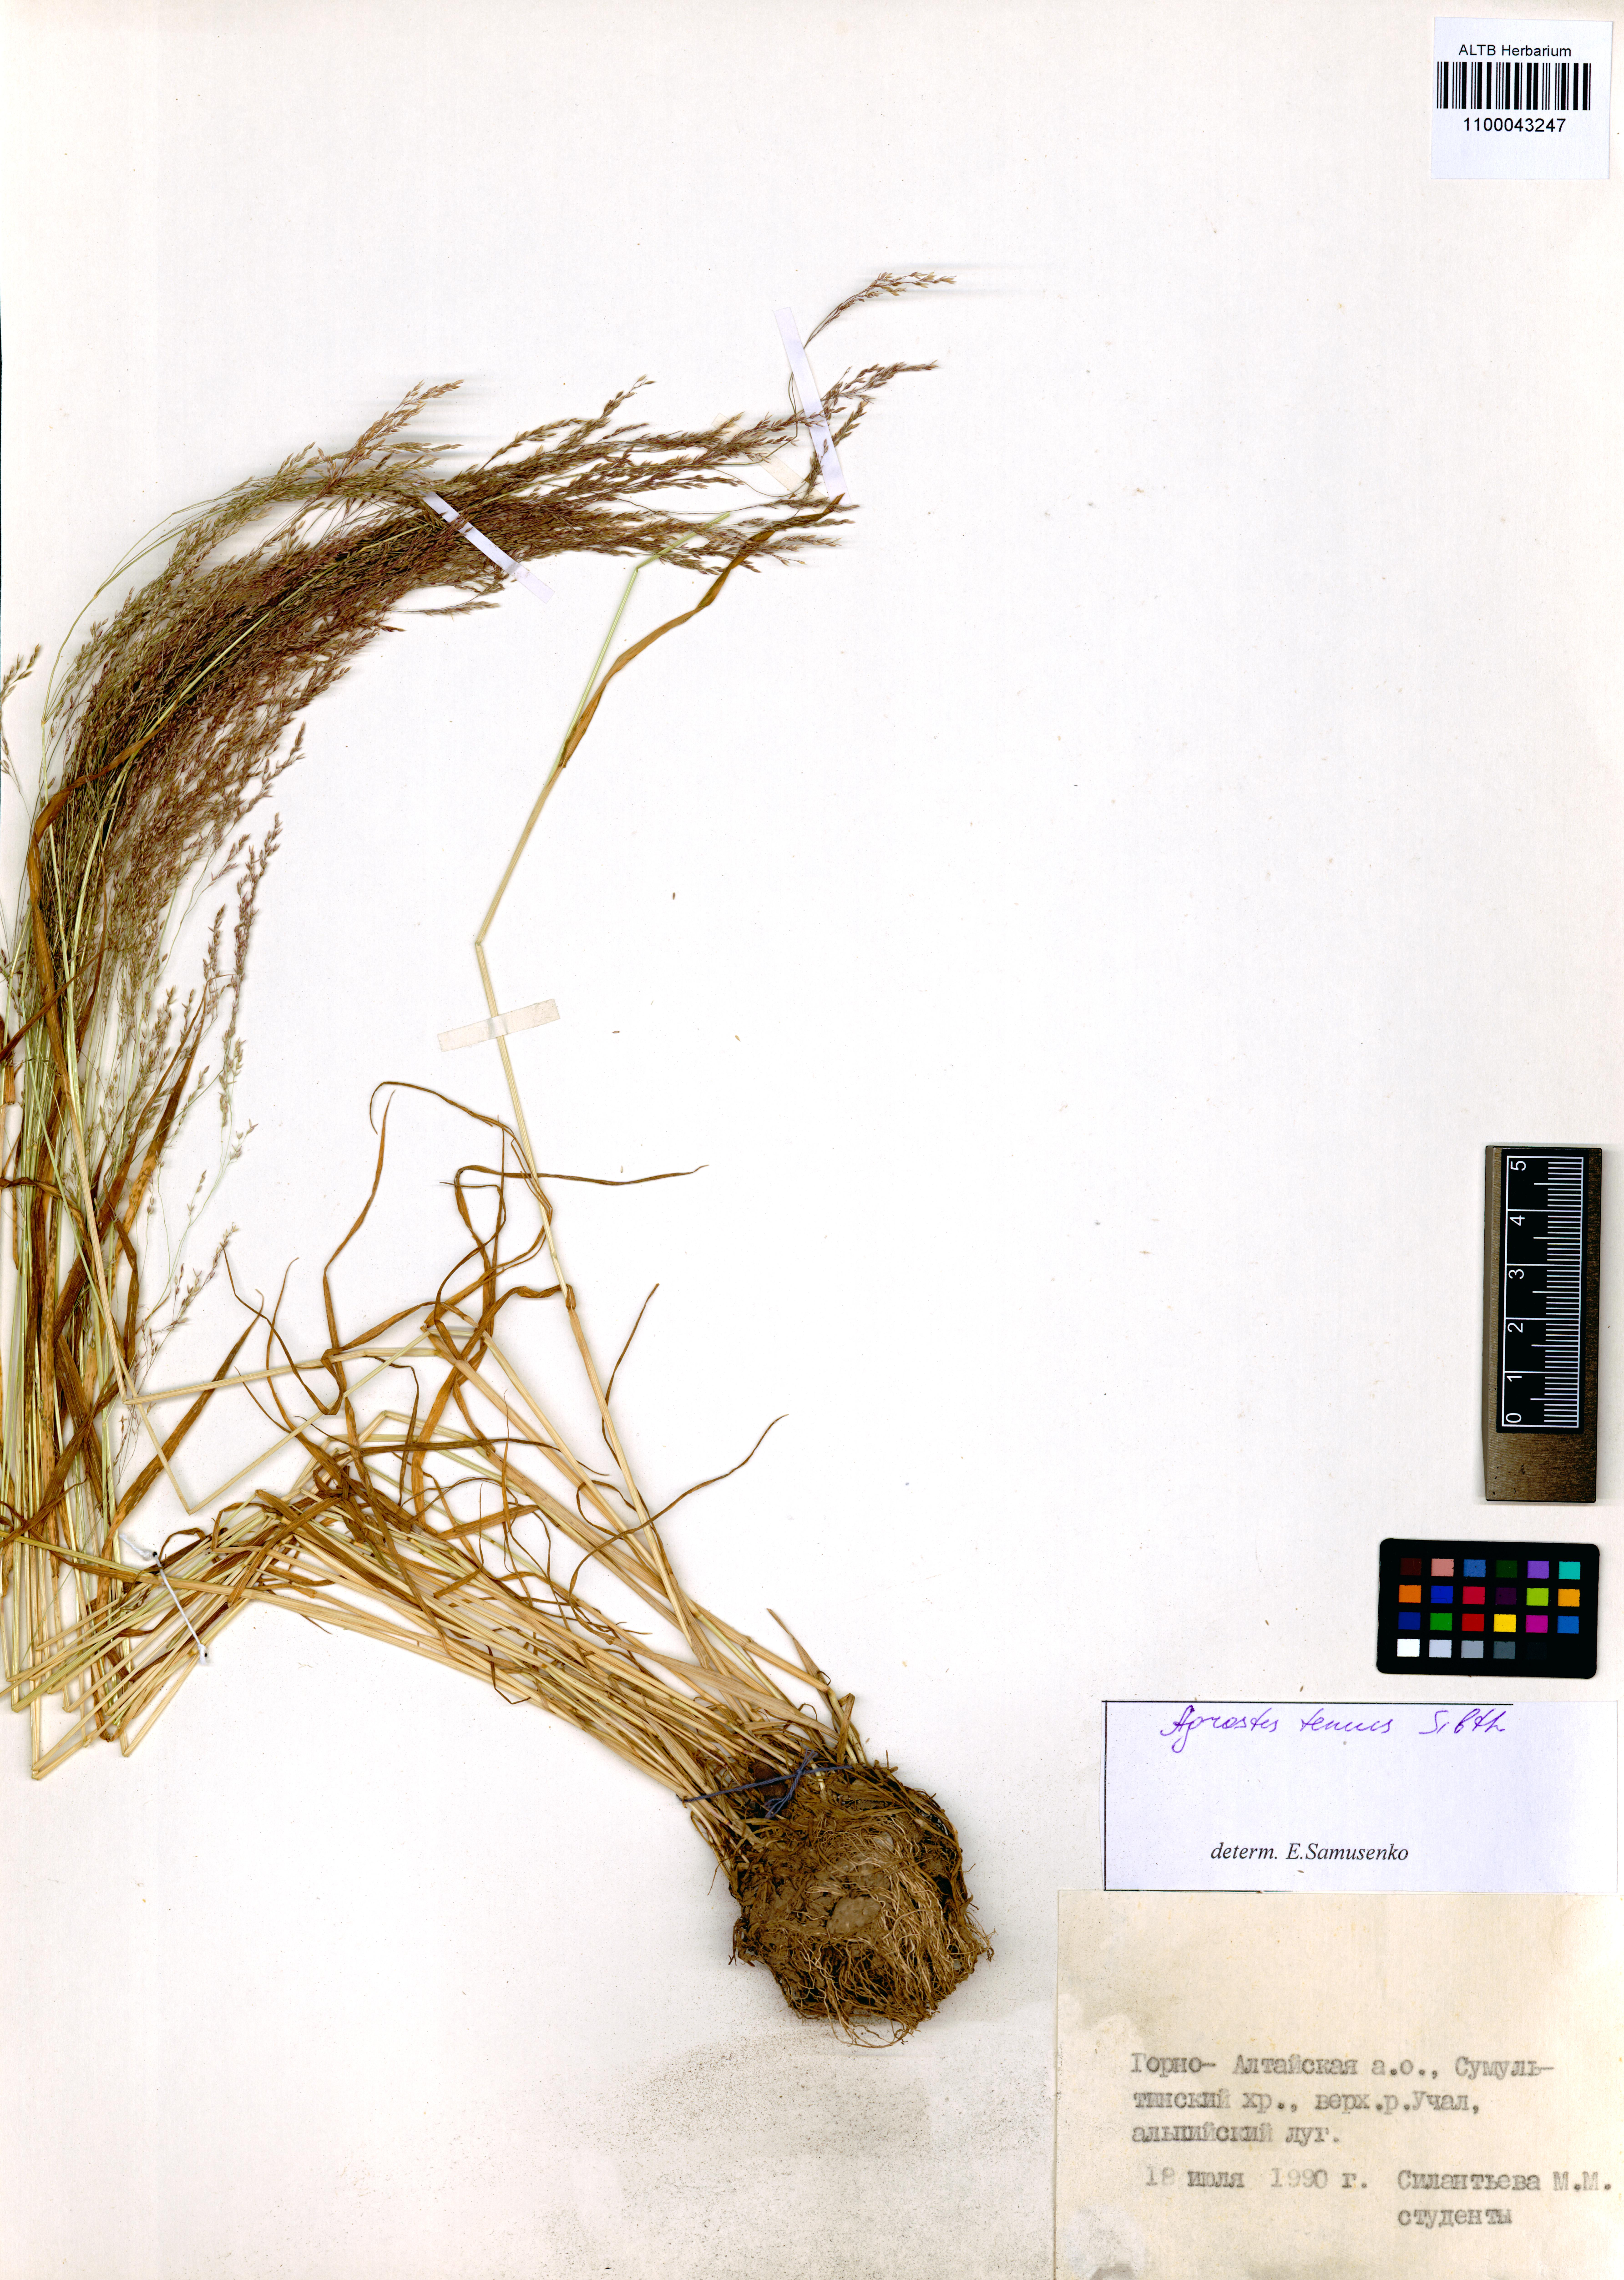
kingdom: Plantae
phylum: Tracheophyta
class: Liliopsida
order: Poales
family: Poaceae
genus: Agrostis
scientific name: Agrostis capillaris
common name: Colonial bentgrass
